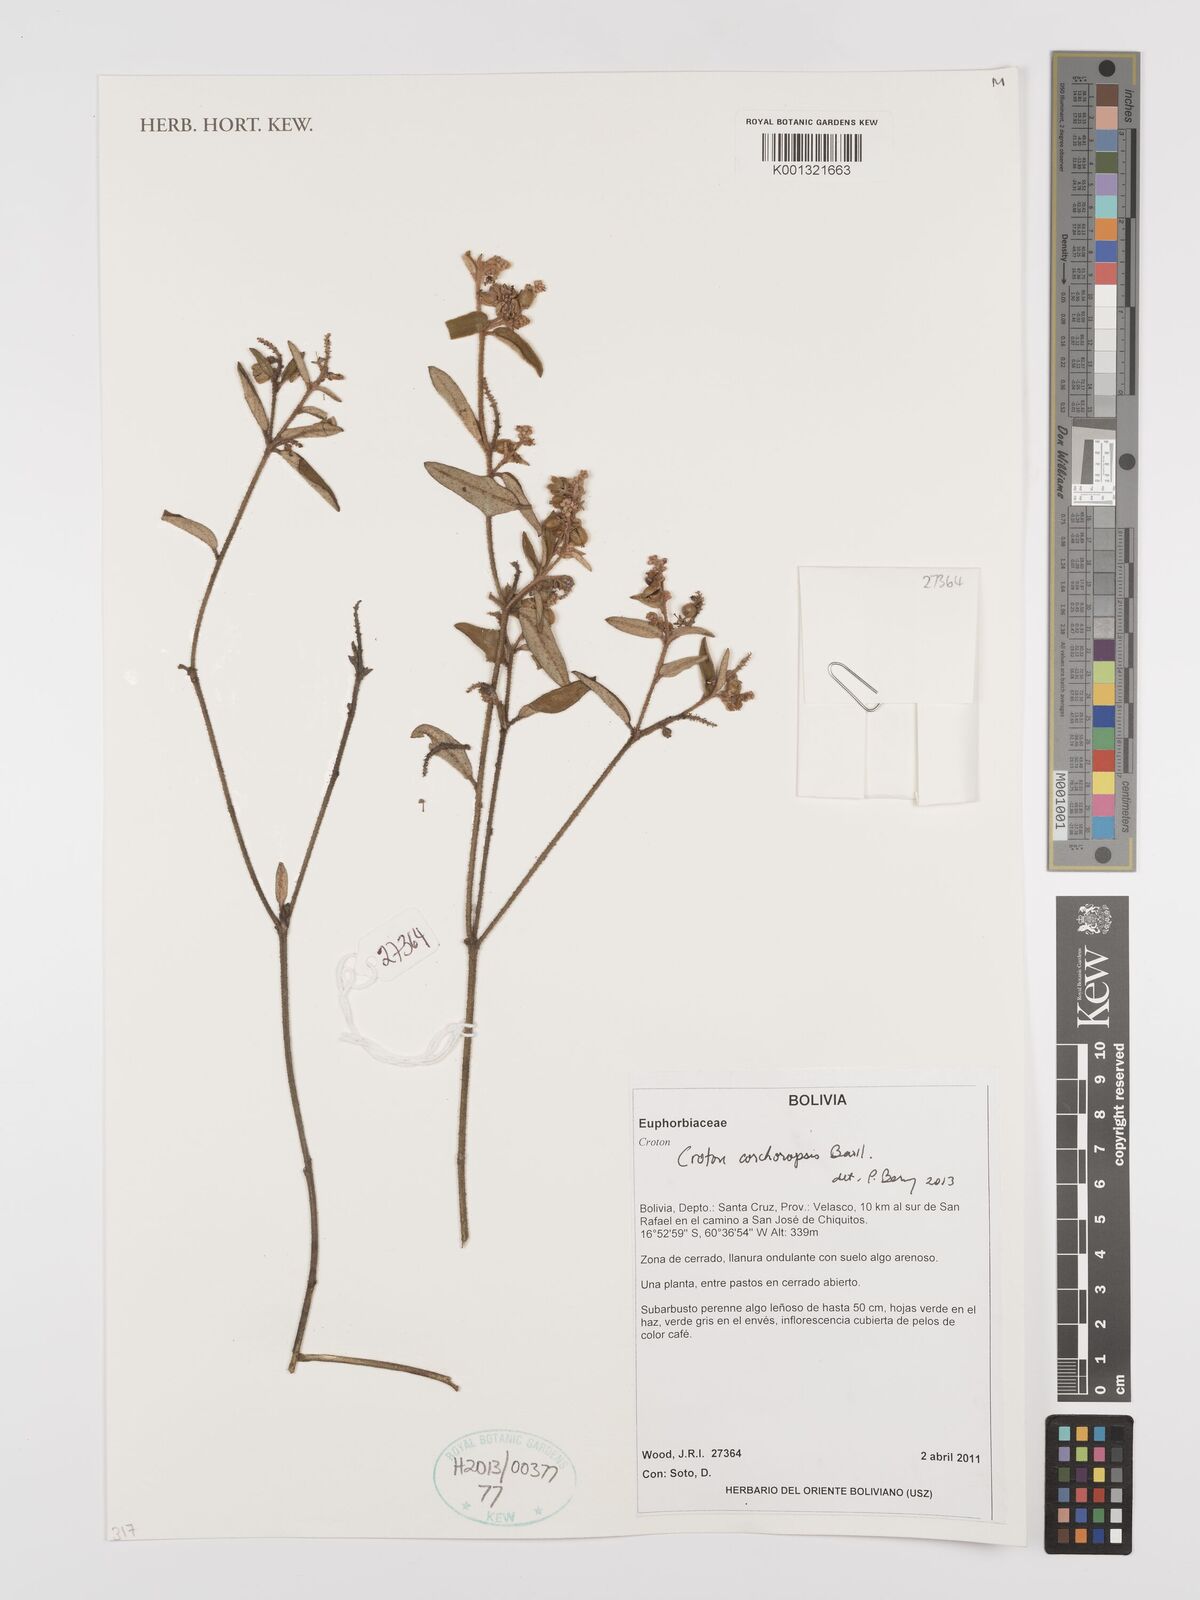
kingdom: Plantae
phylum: Tracheophyta
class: Magnoliopsida
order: Malpighiales
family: Euphorbiaceae
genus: Croton
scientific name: Croton corchoropsis
